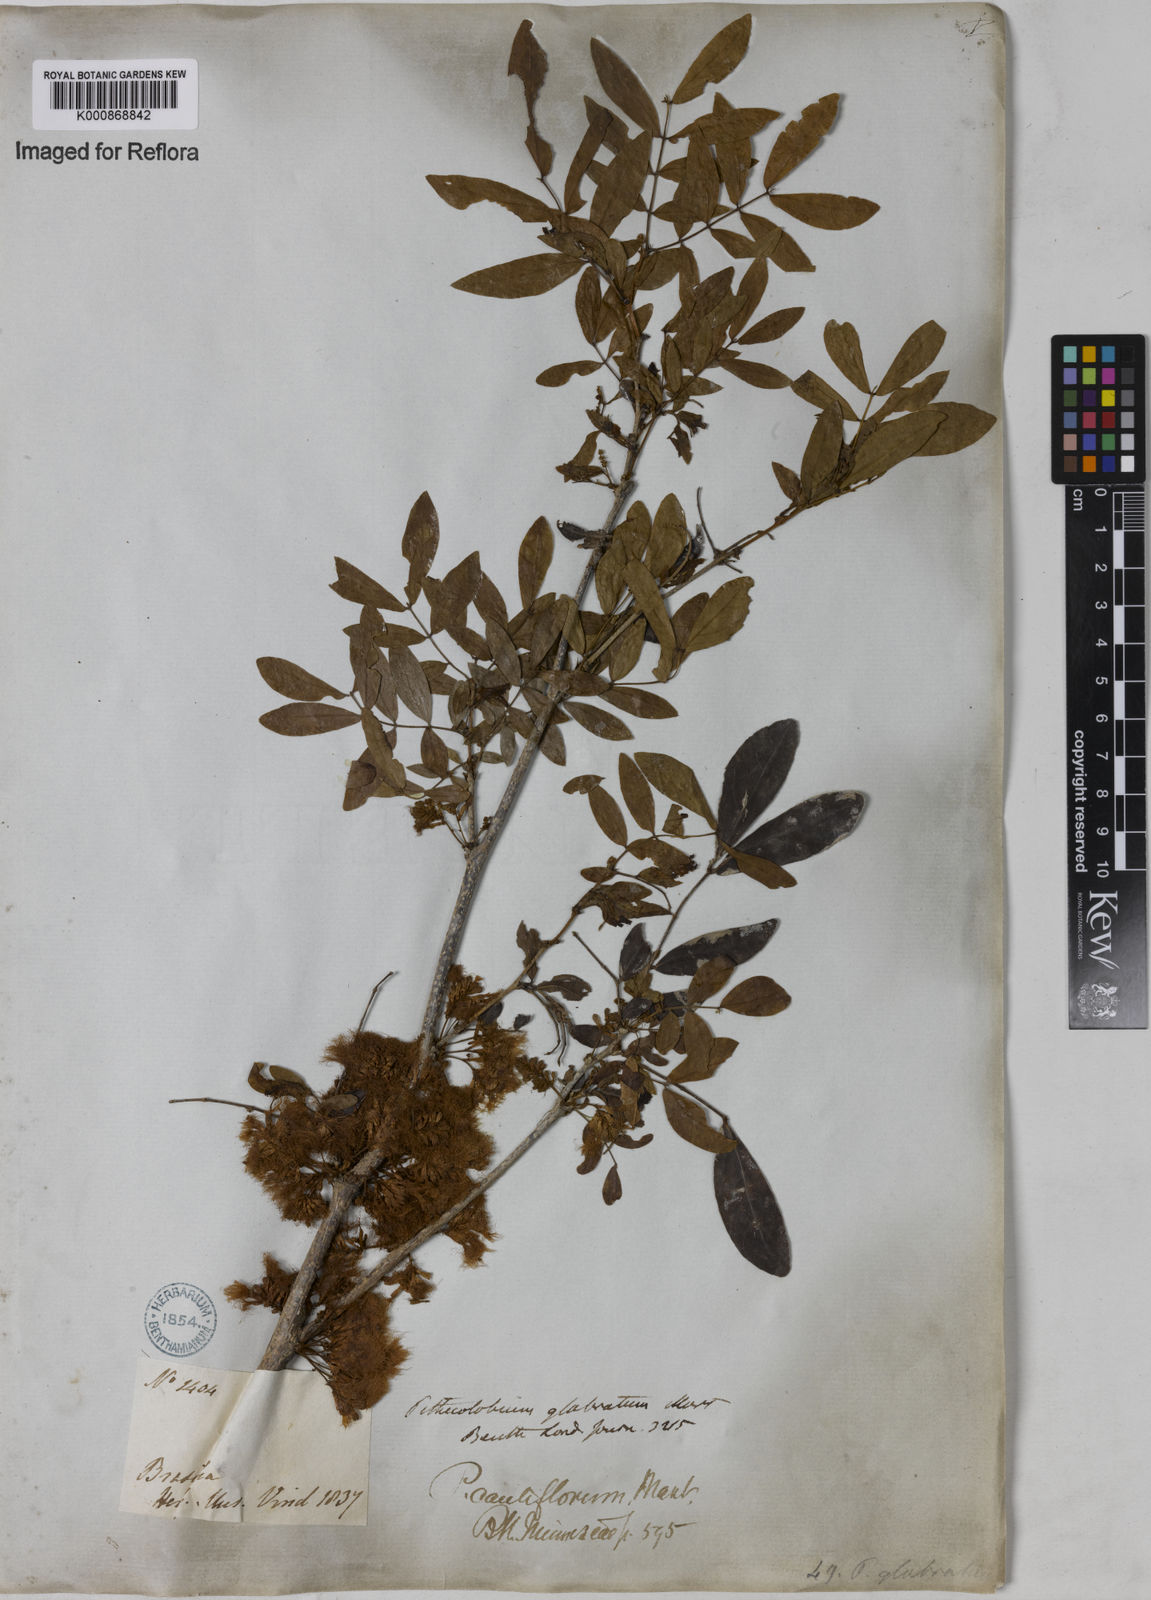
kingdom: Plantae
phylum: Tracheophyta
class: Magnoliopsida
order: Fabales
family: Fabaceae
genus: Zygia
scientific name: Zygia
